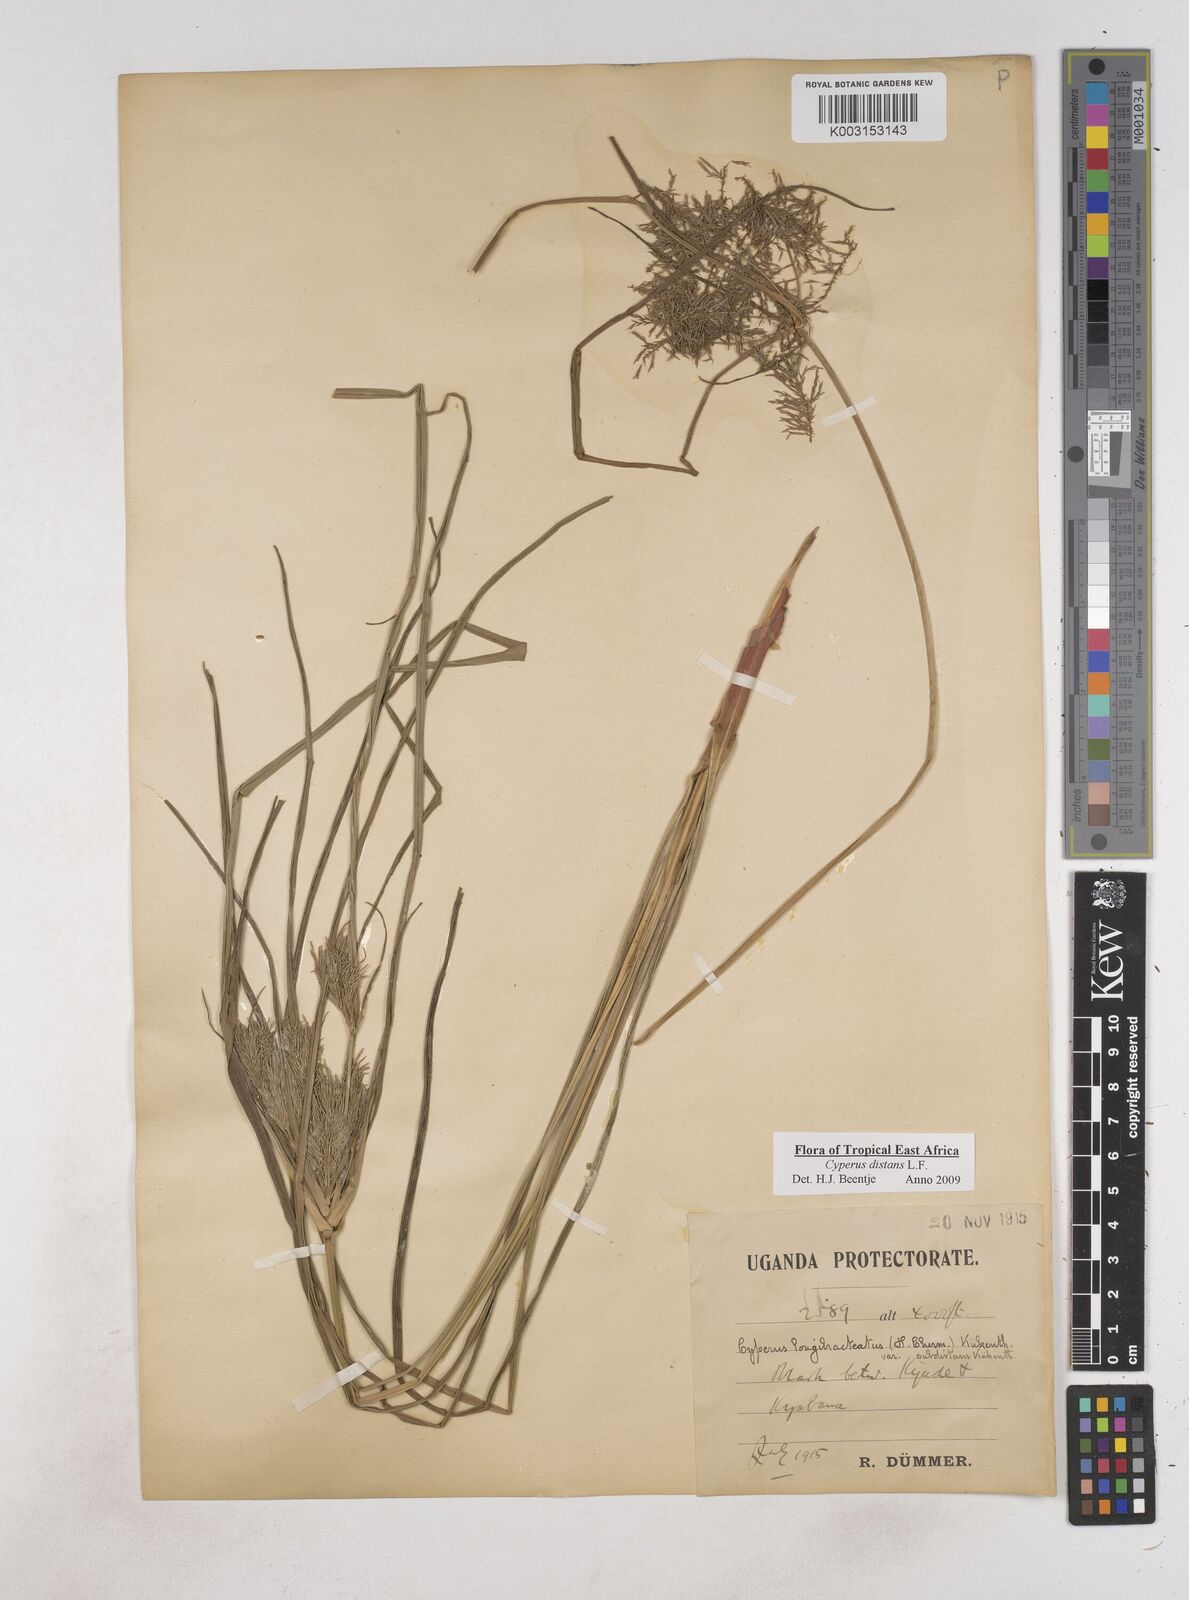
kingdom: Plantae
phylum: Tracheophyta
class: Liliopsida
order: Poales
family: Cyperaceae
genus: Cyperus
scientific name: Cyperus distans
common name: Slender cyperus
